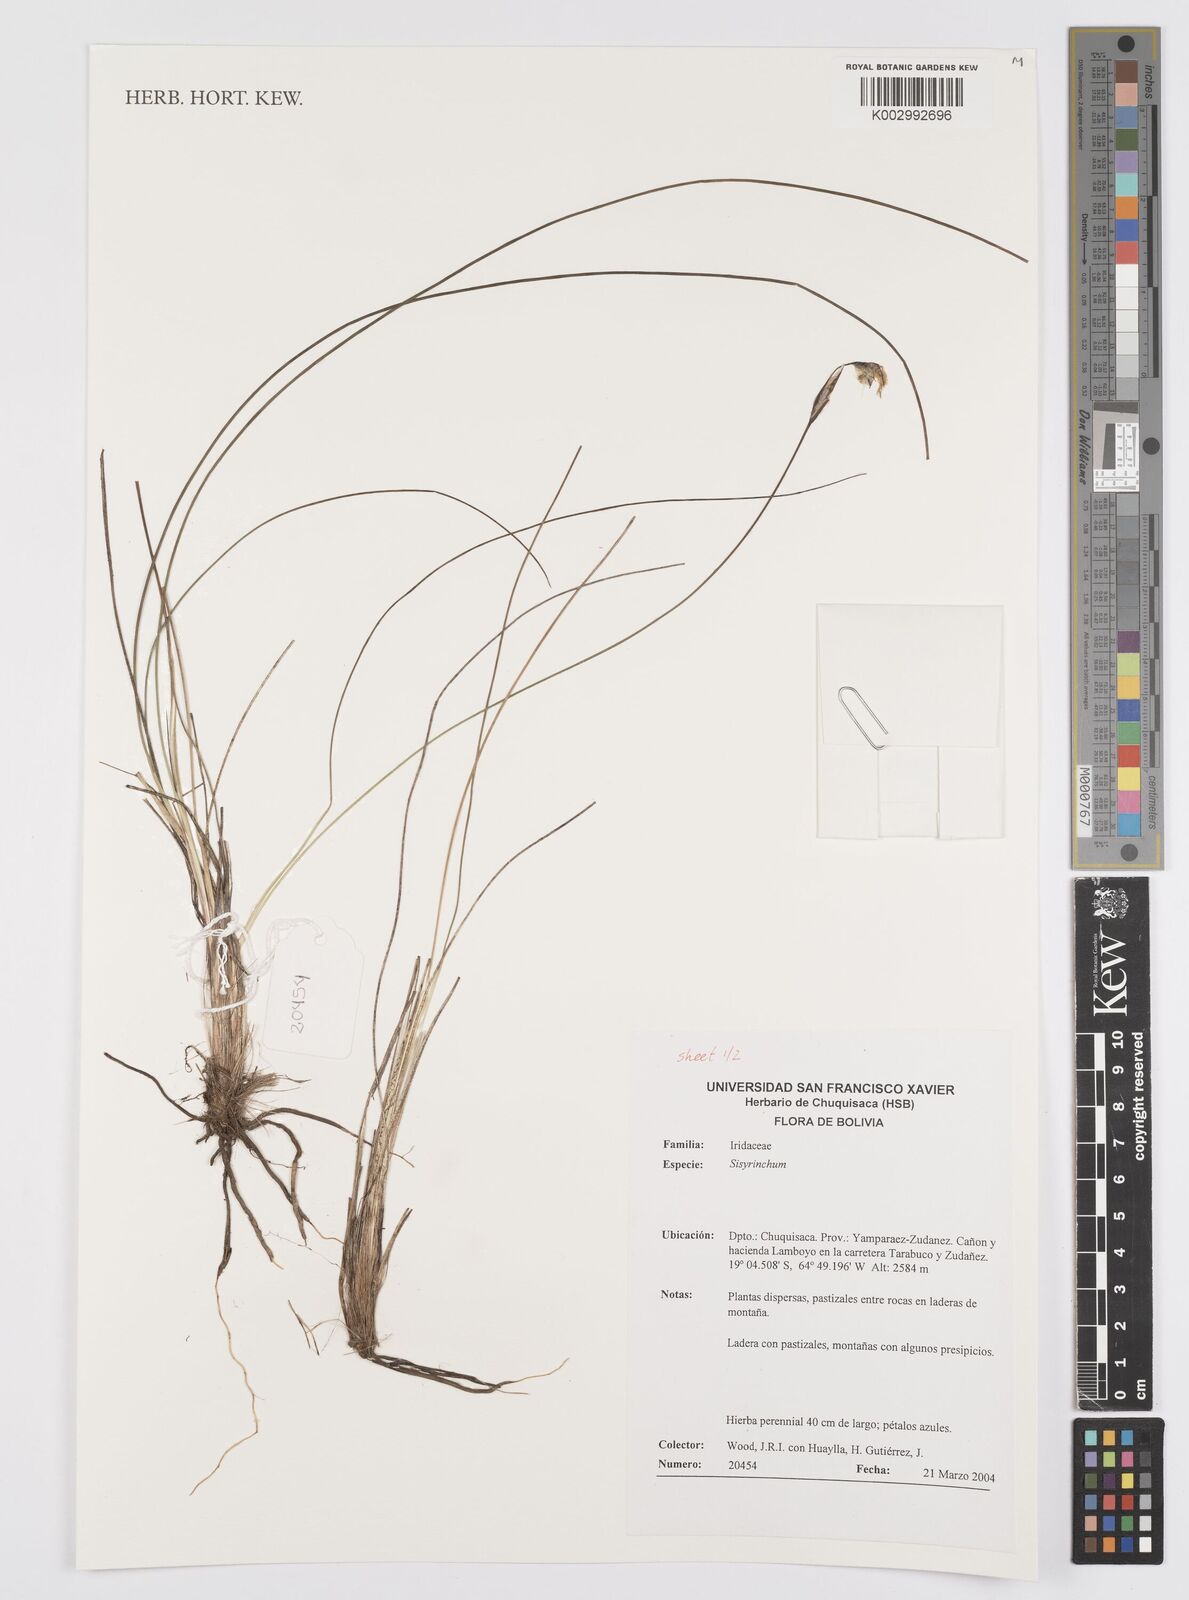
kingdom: Plantae
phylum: Tracheophyta
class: Liliopsida
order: Asparagales
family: Iridaceae
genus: Sisyrinchium
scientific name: Sisyrinchium
